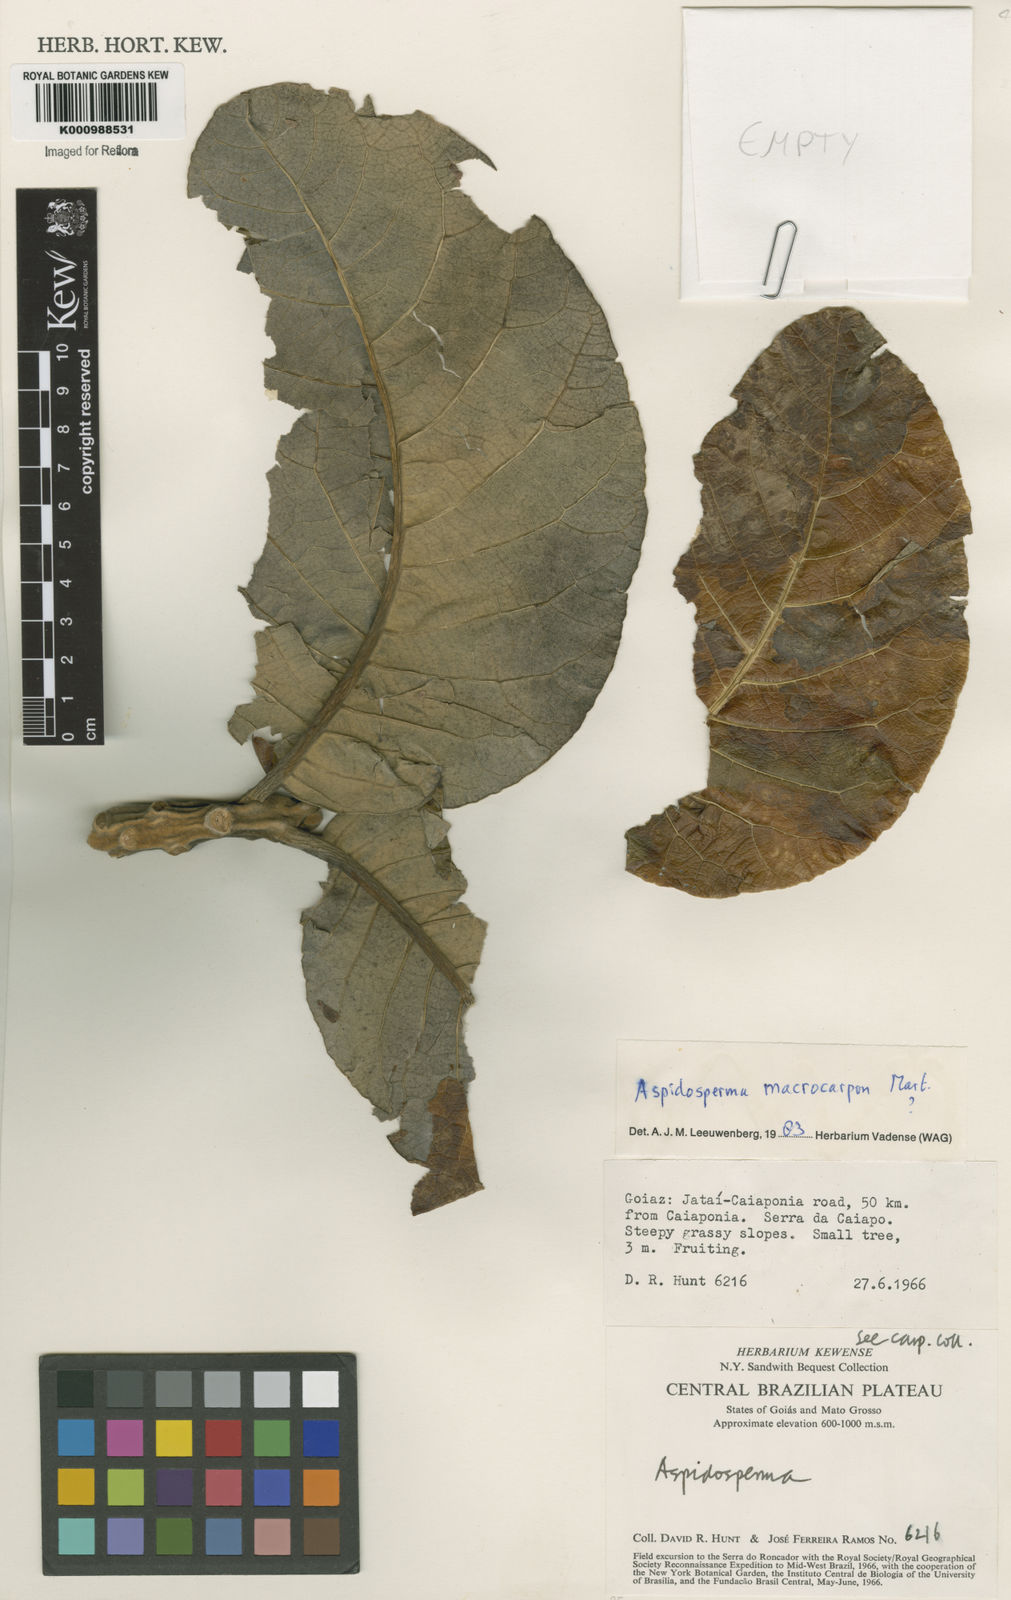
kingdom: Plantae
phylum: Tracheophyta
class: Magnoliopsida
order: Gentianales
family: Apocynaceae
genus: Aspidosperma
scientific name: Aspidosperma macrocarpon
